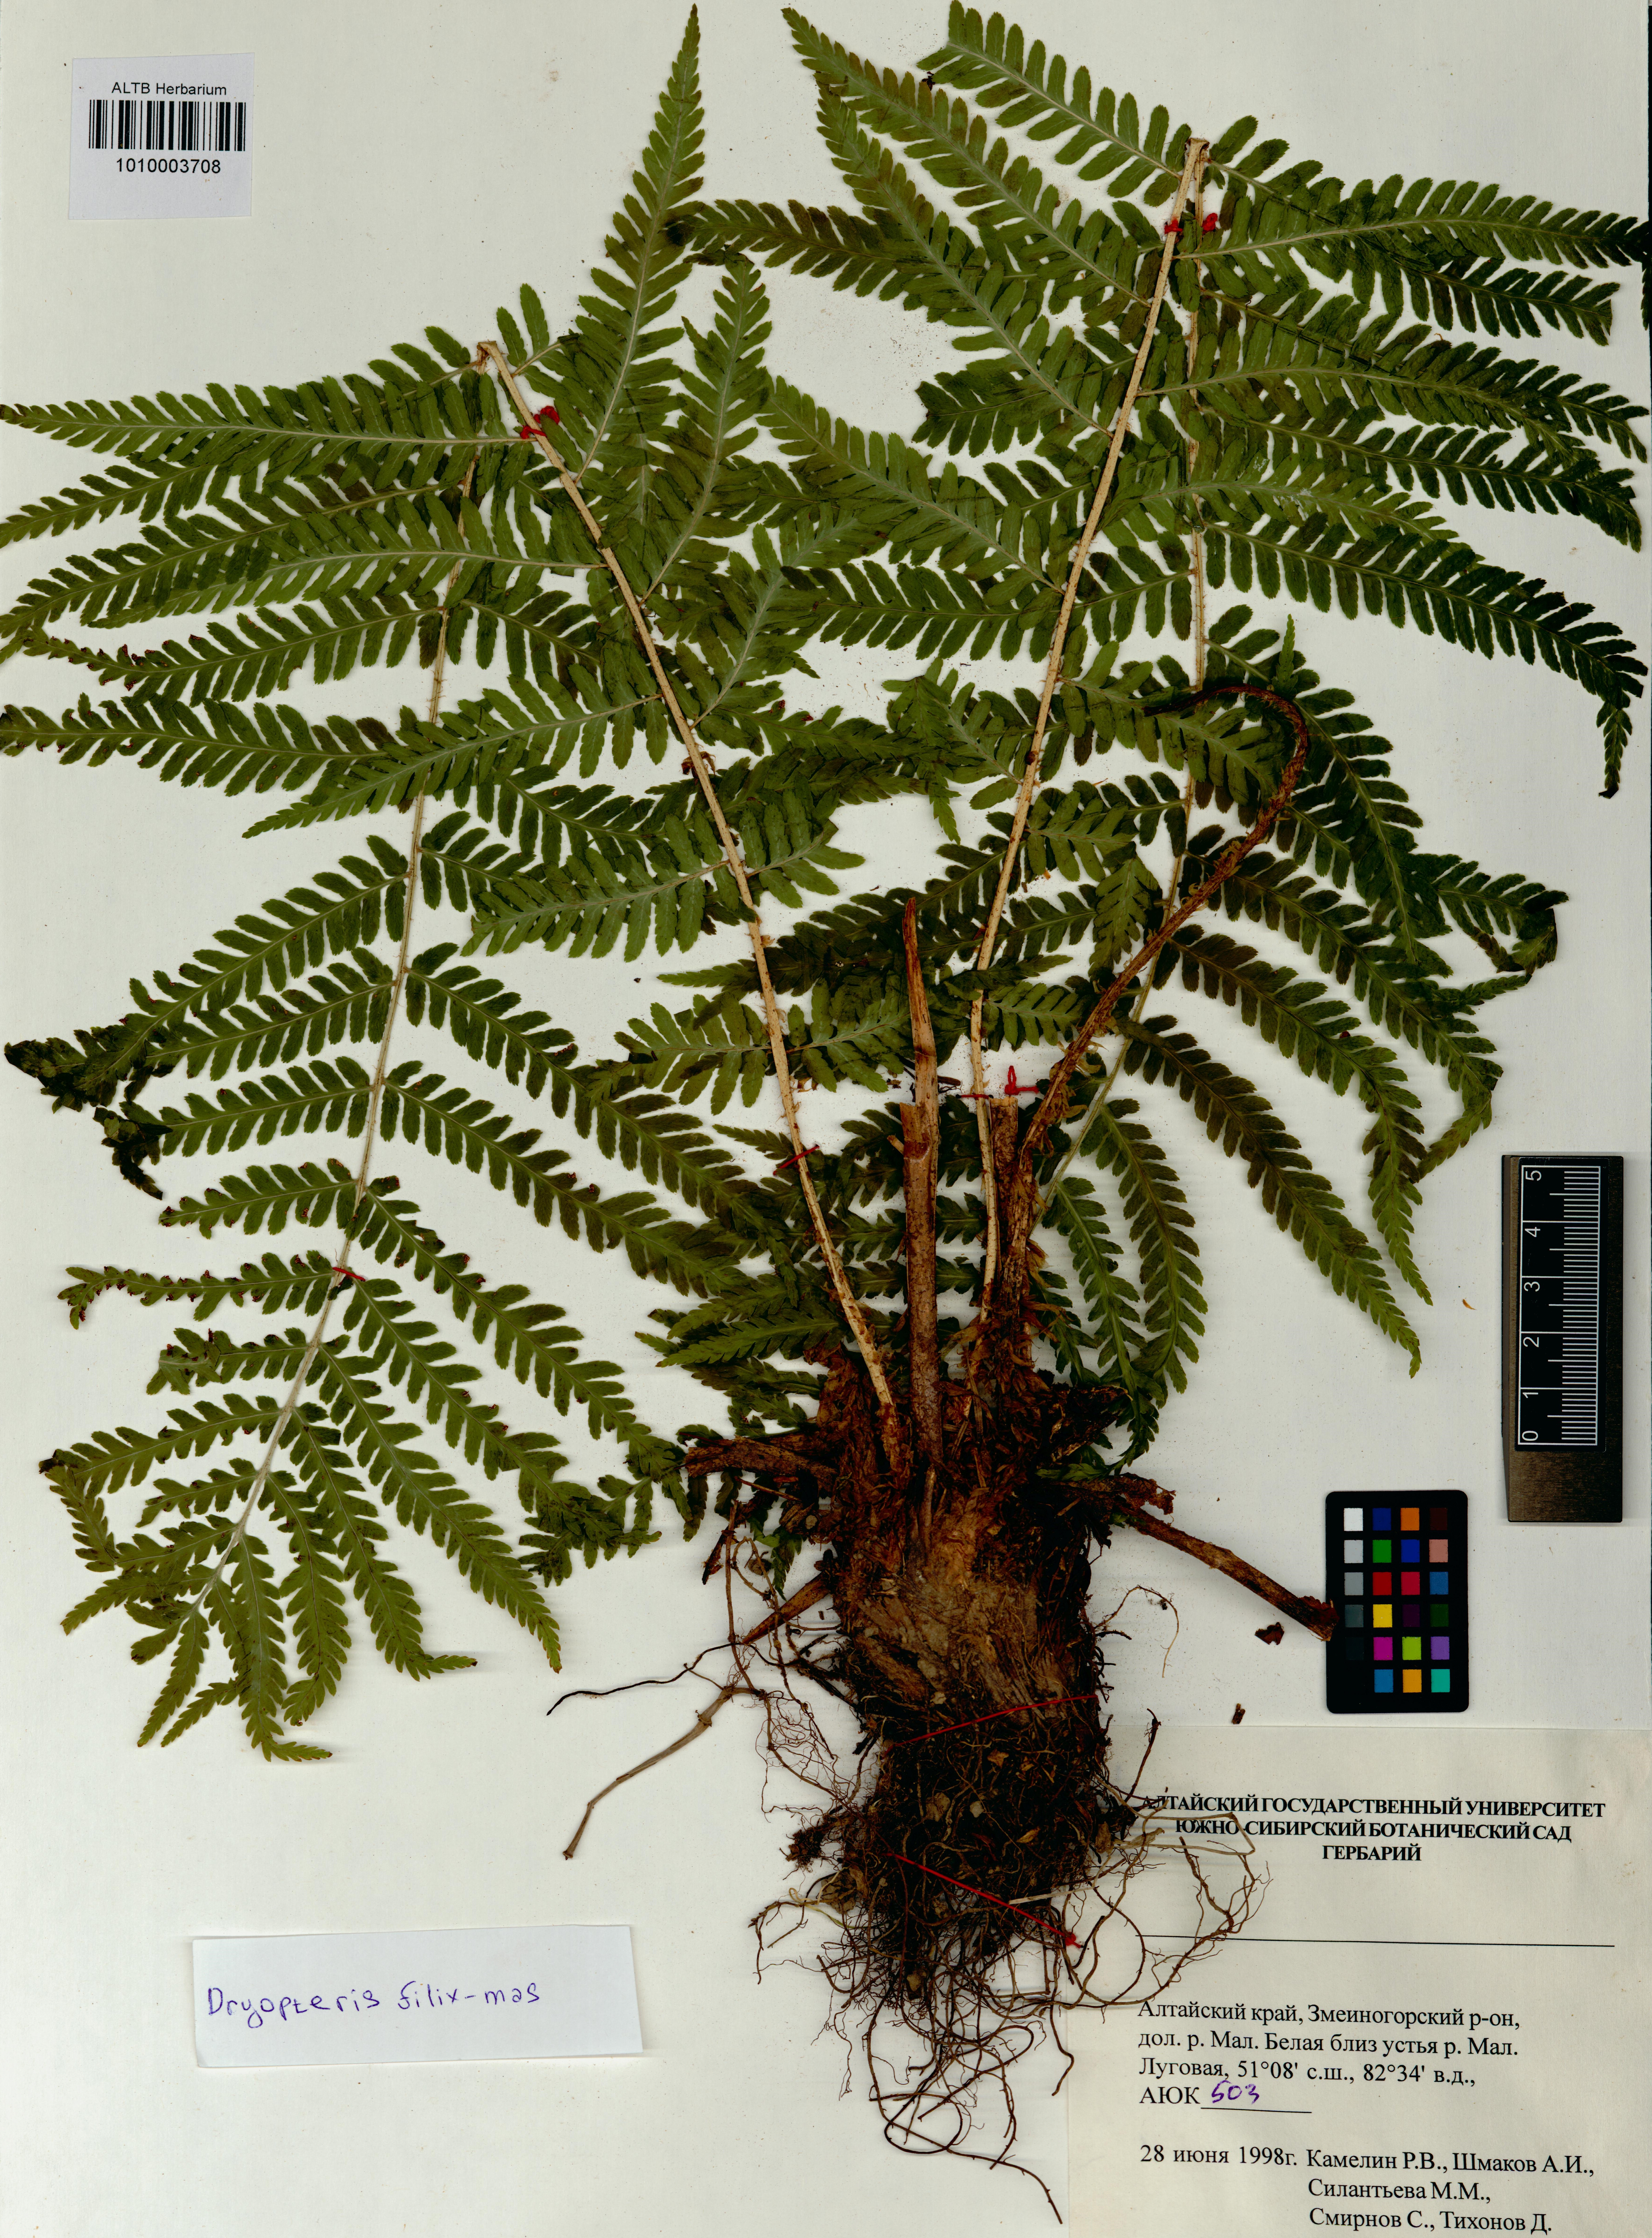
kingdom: Plantae
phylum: Tracheophyta
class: Polypodiopsida
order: Polypodiales
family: Dryopteridaceae
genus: Dryopteris
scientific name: Dryopteris filix-mas
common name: Male fern
